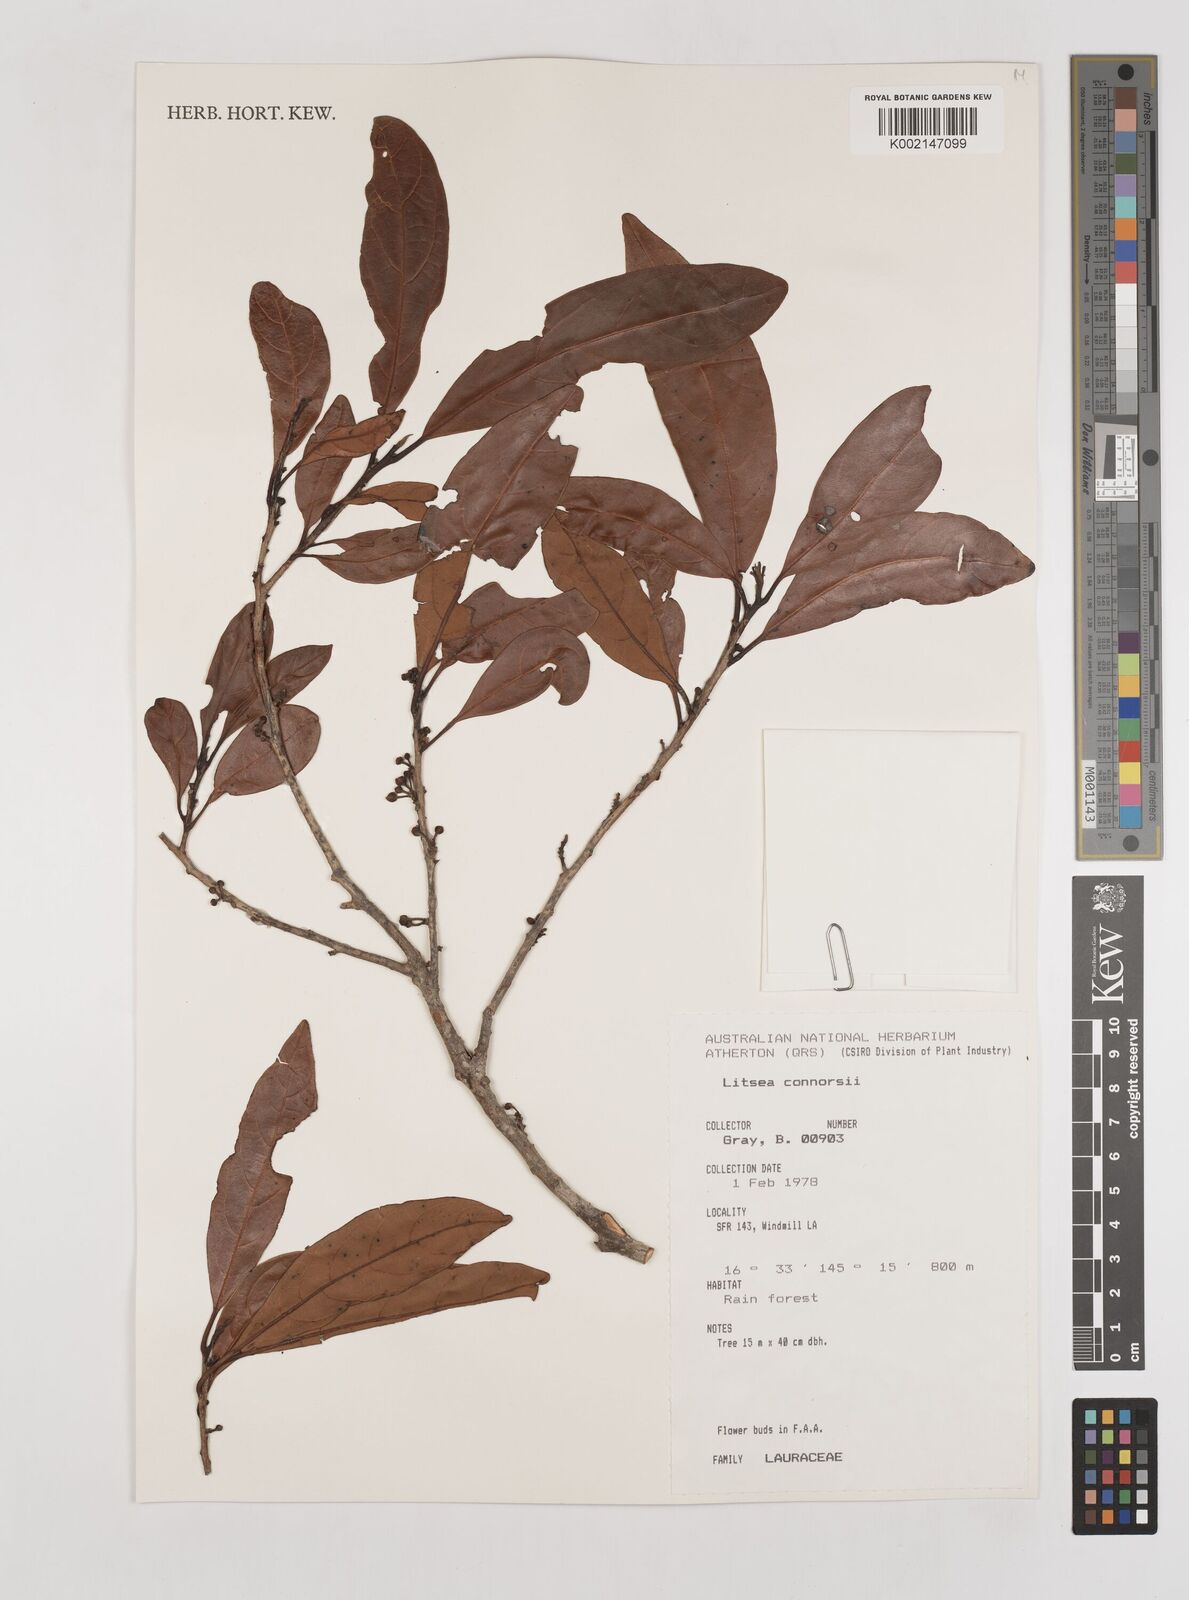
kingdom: Plantae
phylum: Tracheophyta
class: Magnoliopsida
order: Laurales
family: Lauraceae
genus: Litsea
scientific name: Litsea connorsii
